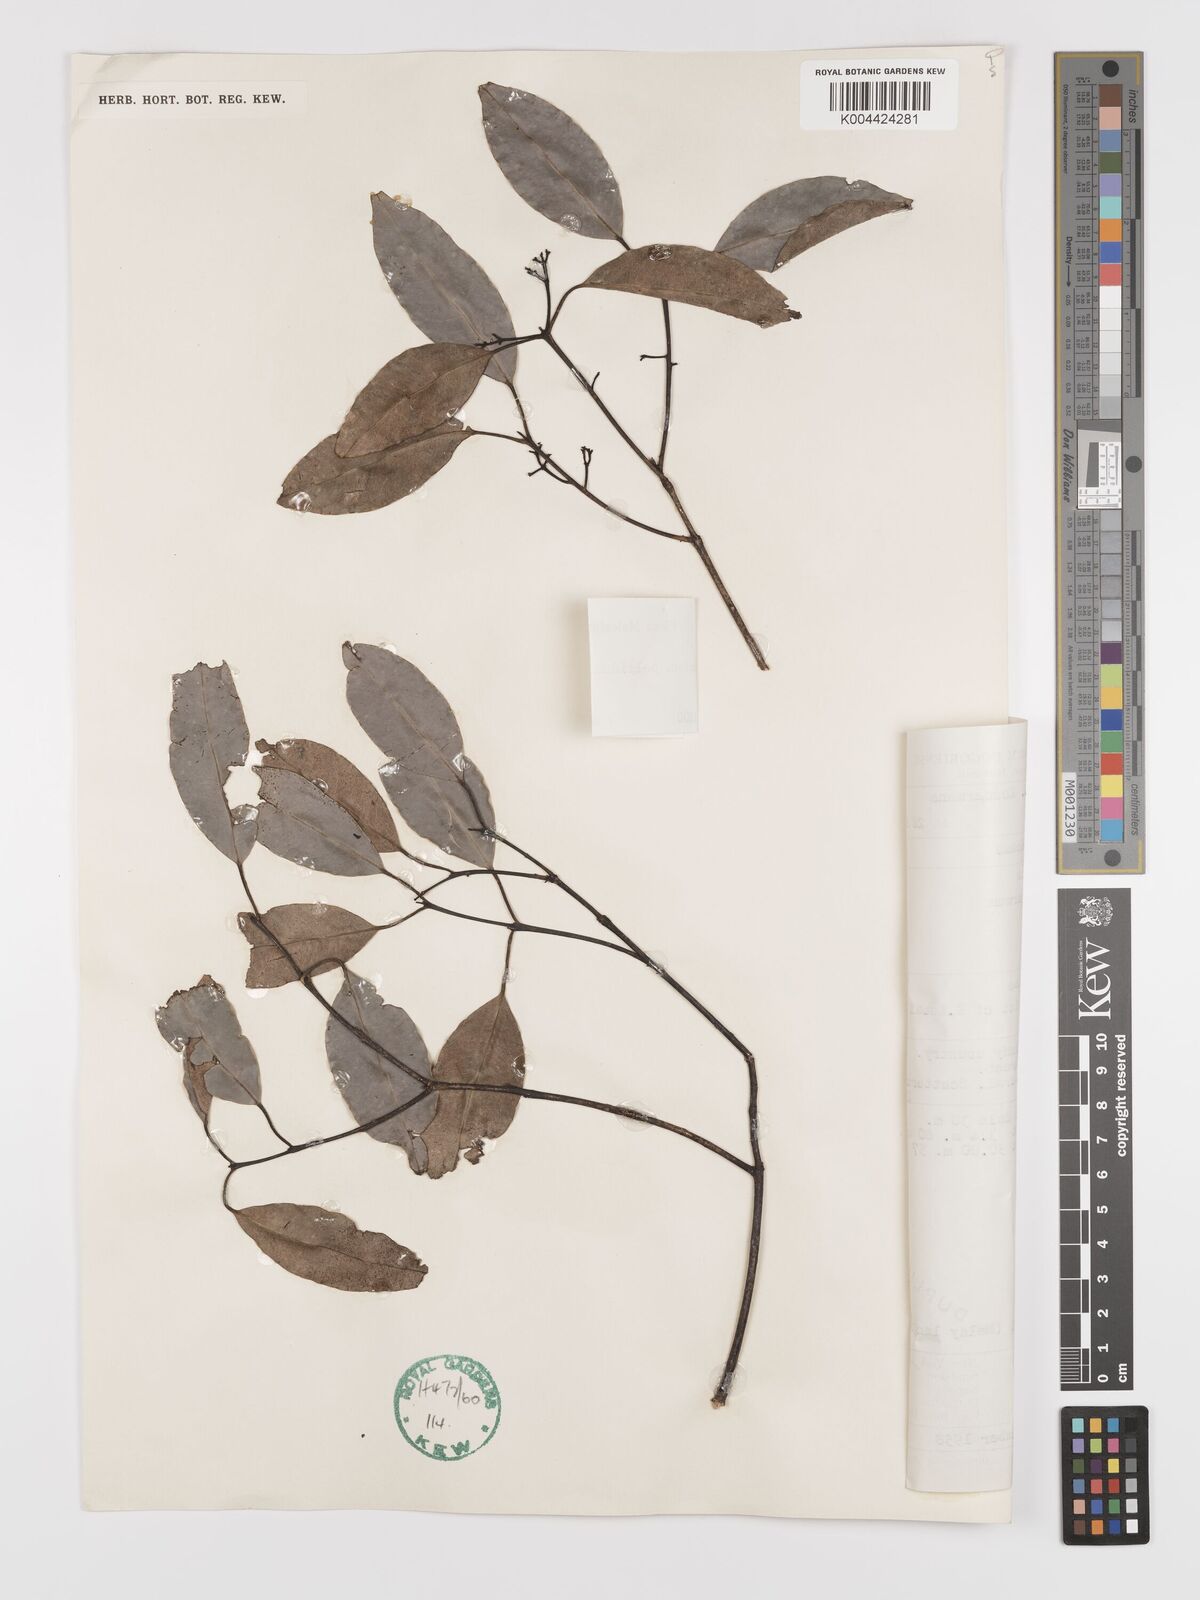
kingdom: Plantae
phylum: Tracheophyta
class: Magnoliopsida
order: Celastrales
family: Celastraceae
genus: Lophopetalum
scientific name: Lophopetalum pallidum
